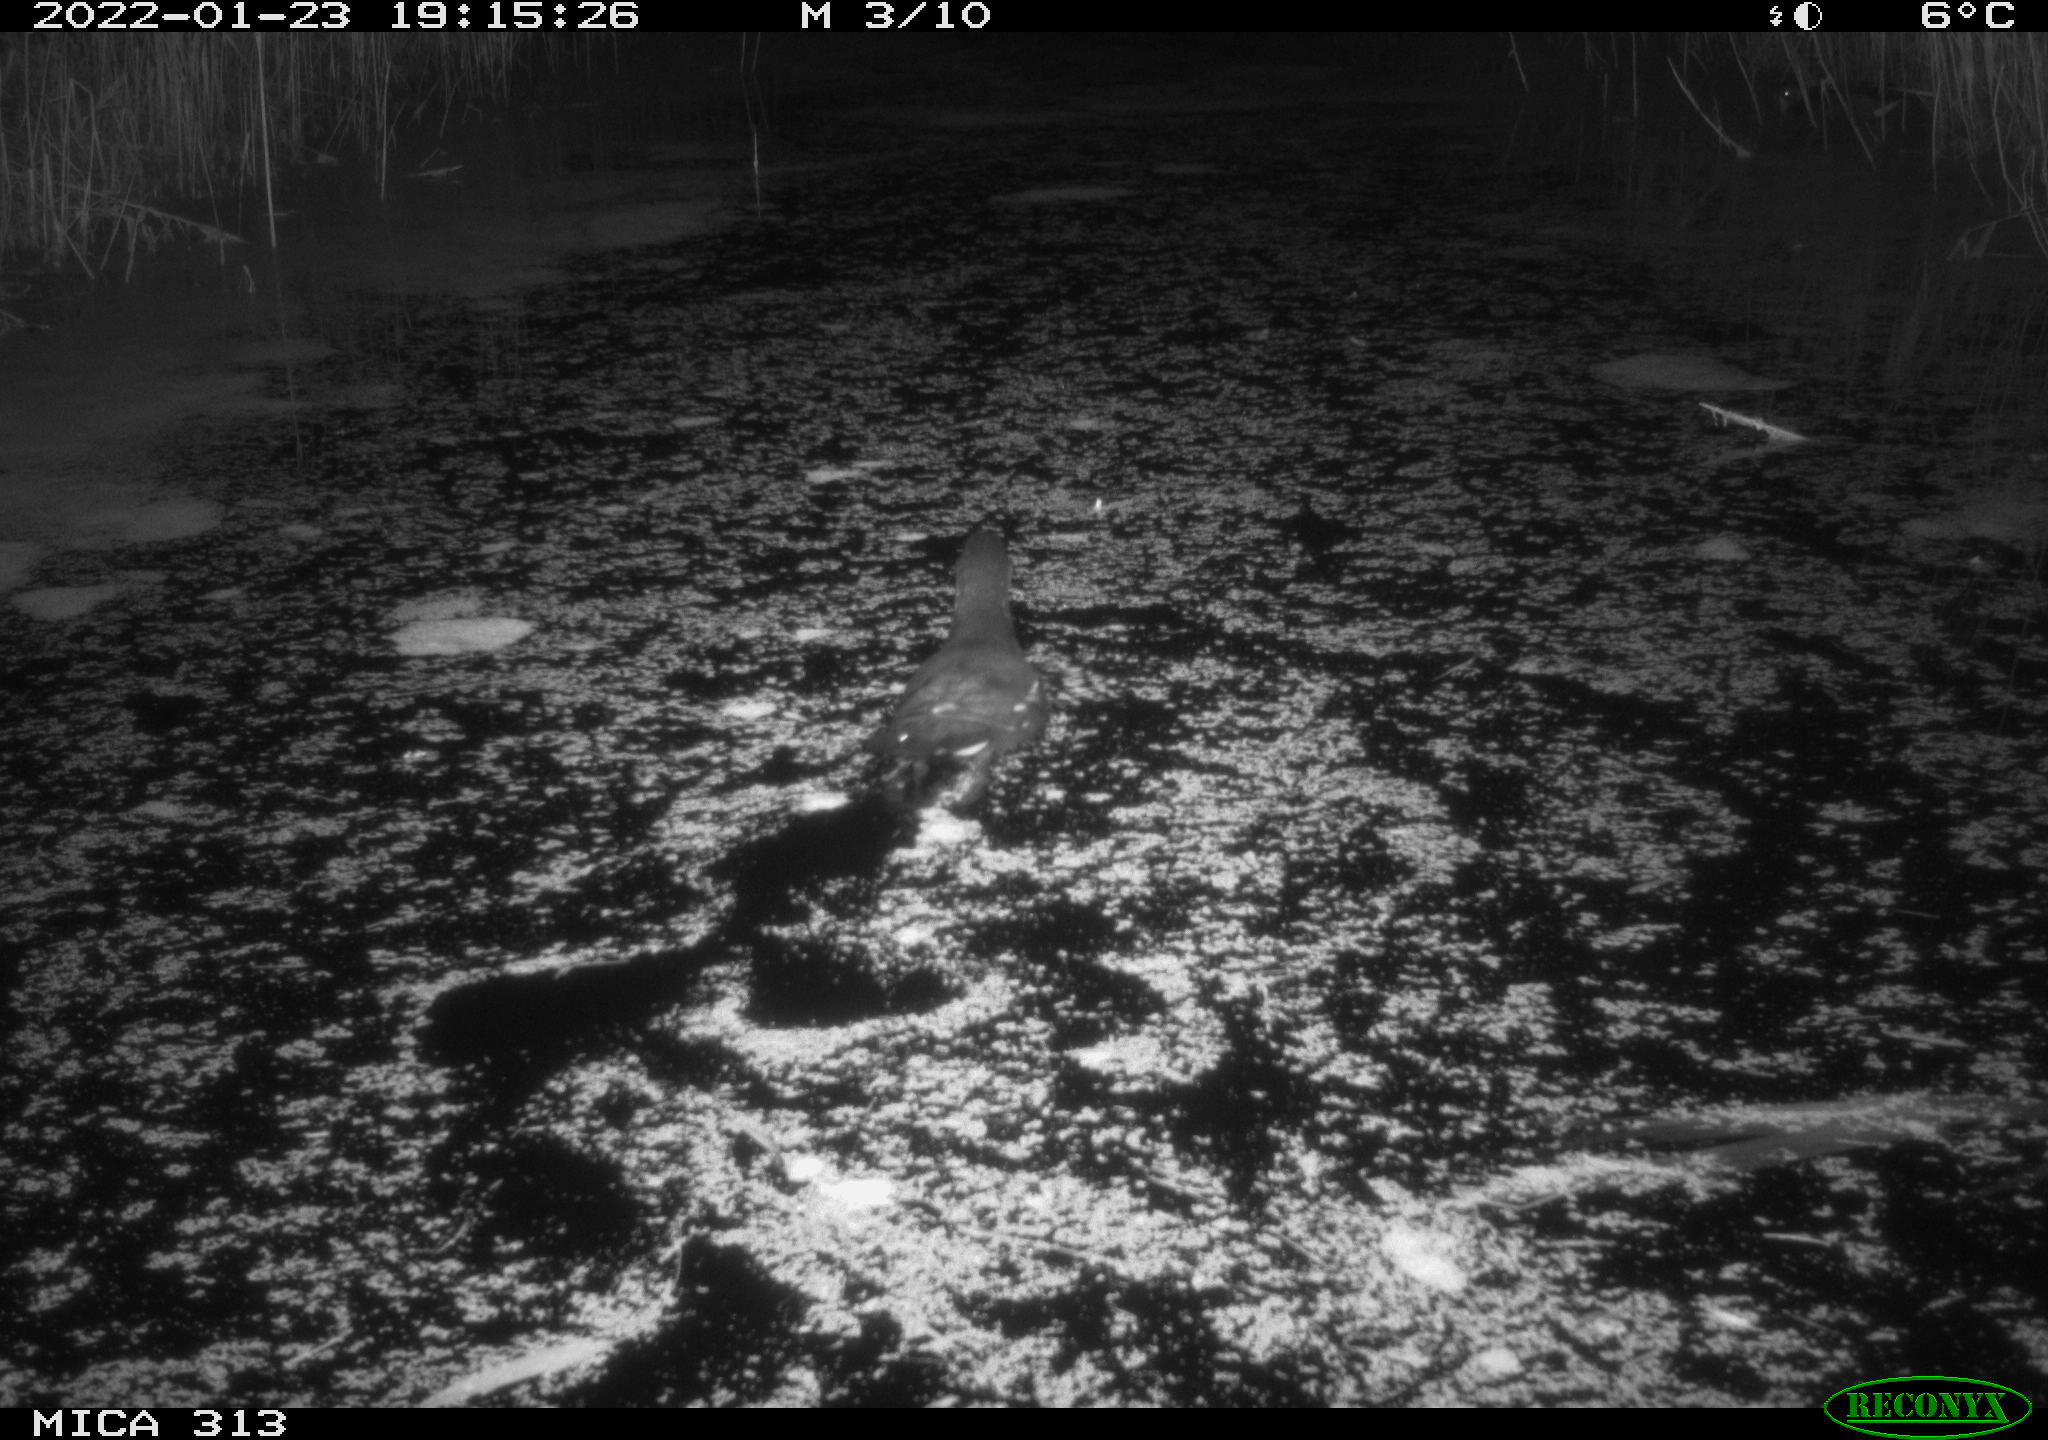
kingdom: Animalia
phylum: Chordata
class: Aves
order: Gruiformes
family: Rallidae
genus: Gallinula
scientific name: Gallinula chloropus
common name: Common moorhen
